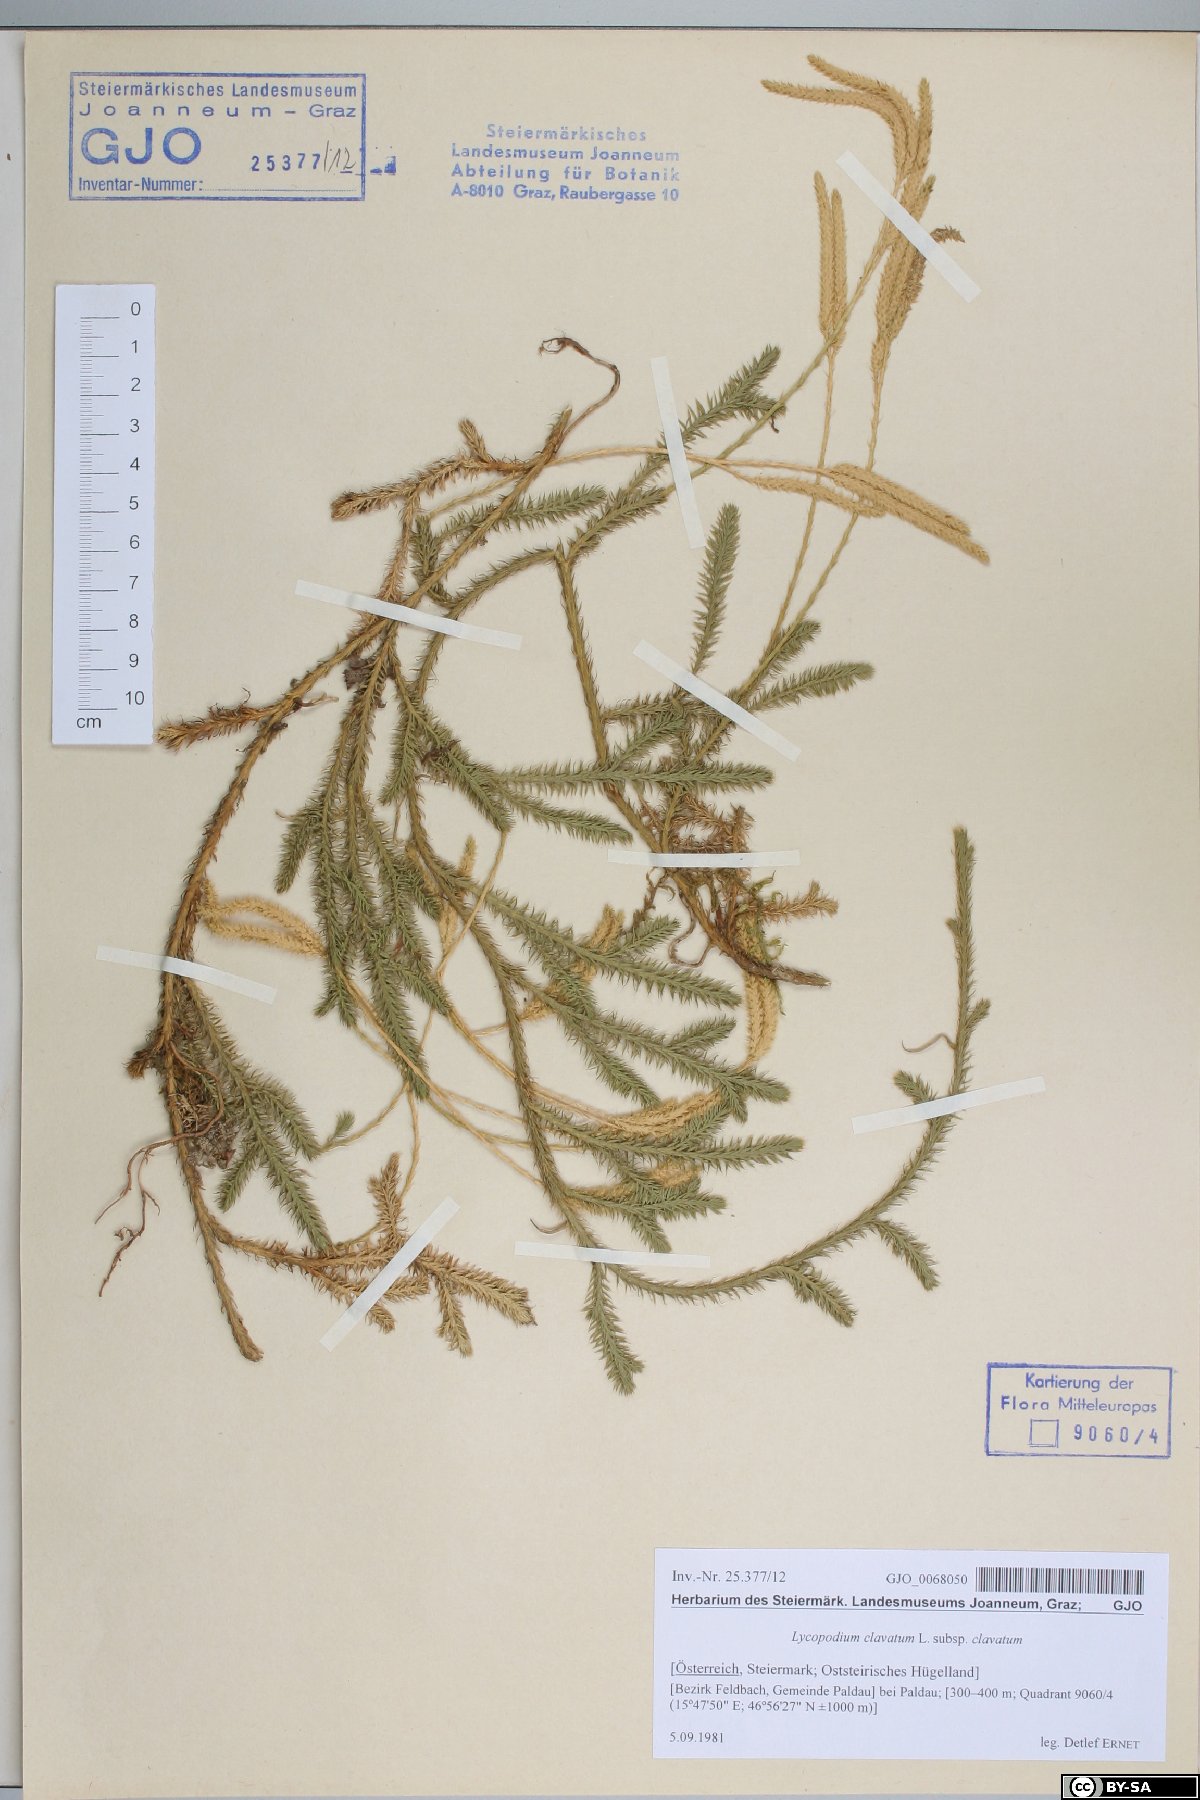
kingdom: Plantae
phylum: Tracheophyta
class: Lycopodiopsida
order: Lycopodiales
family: Lycopodiaceae
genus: Lycopodium
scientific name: Lycopodium clavatum
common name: Stag's-horn clubmoss
